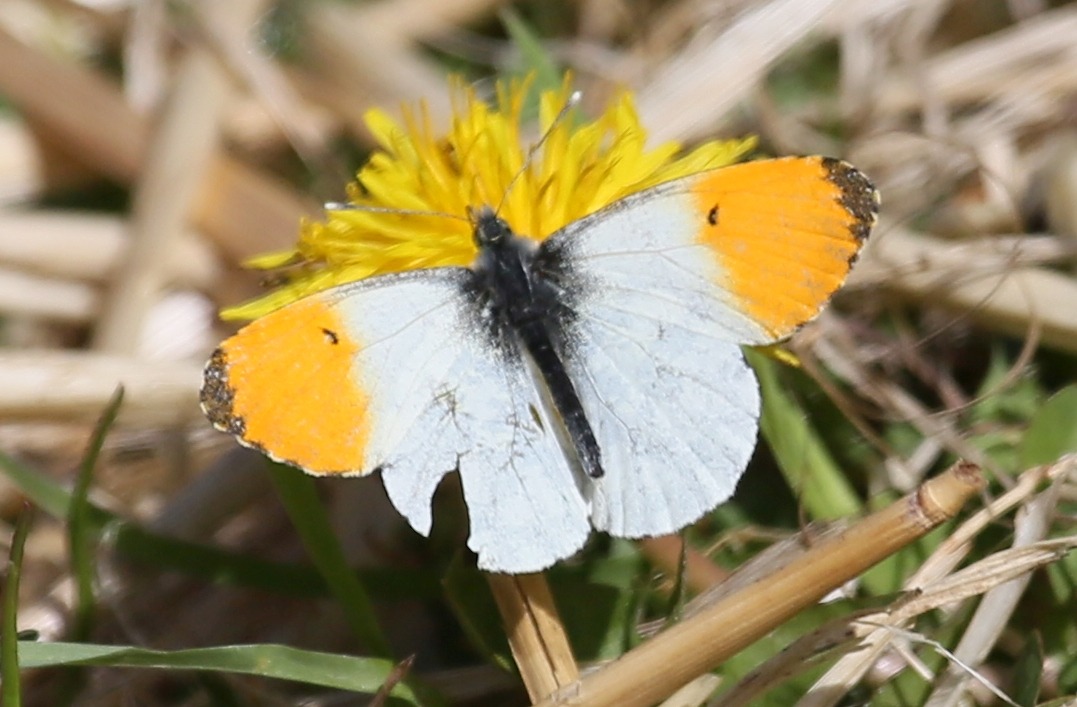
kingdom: Animalia
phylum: Arthropoda
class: Insecta
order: Lepidoptera
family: Pieridae
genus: Anthocharis
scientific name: Anthocharis cardamines
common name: Aurora
